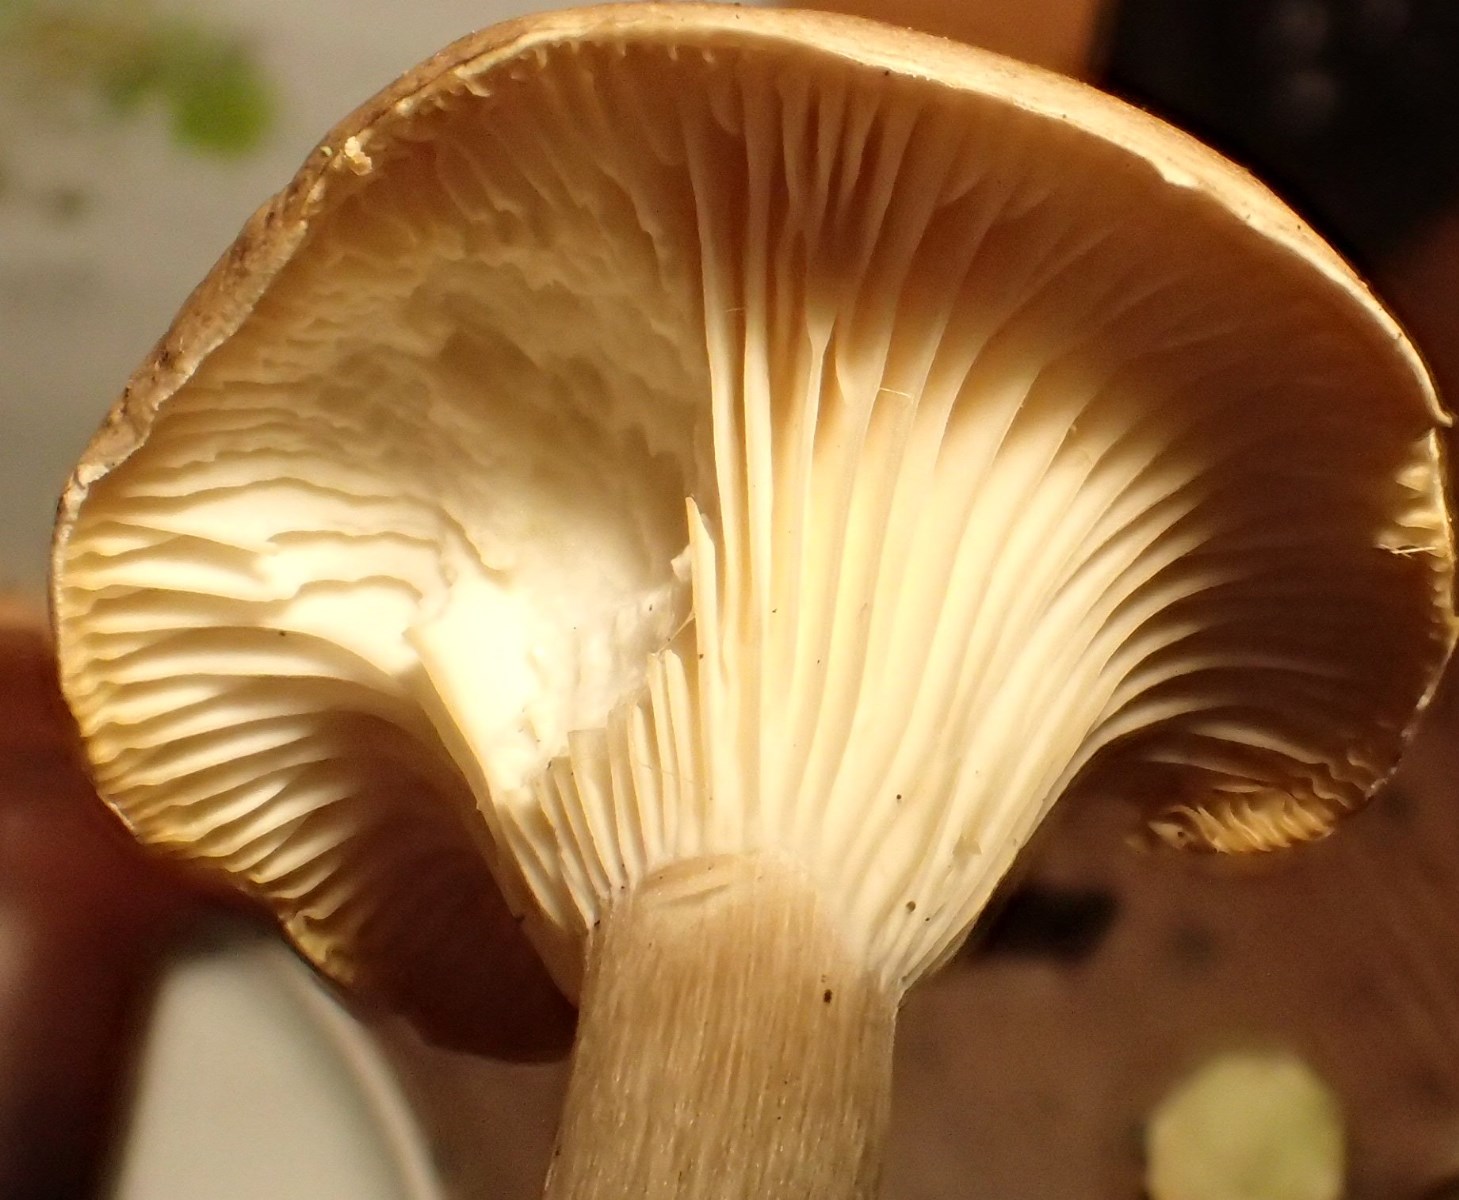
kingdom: Fungi
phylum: Basidiomycota
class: Agaricomycetes
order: Agaricales
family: Hygrophoraceae
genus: Ampulloclitocybe
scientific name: Ampulloclitocybe clavipes
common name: køllefod
